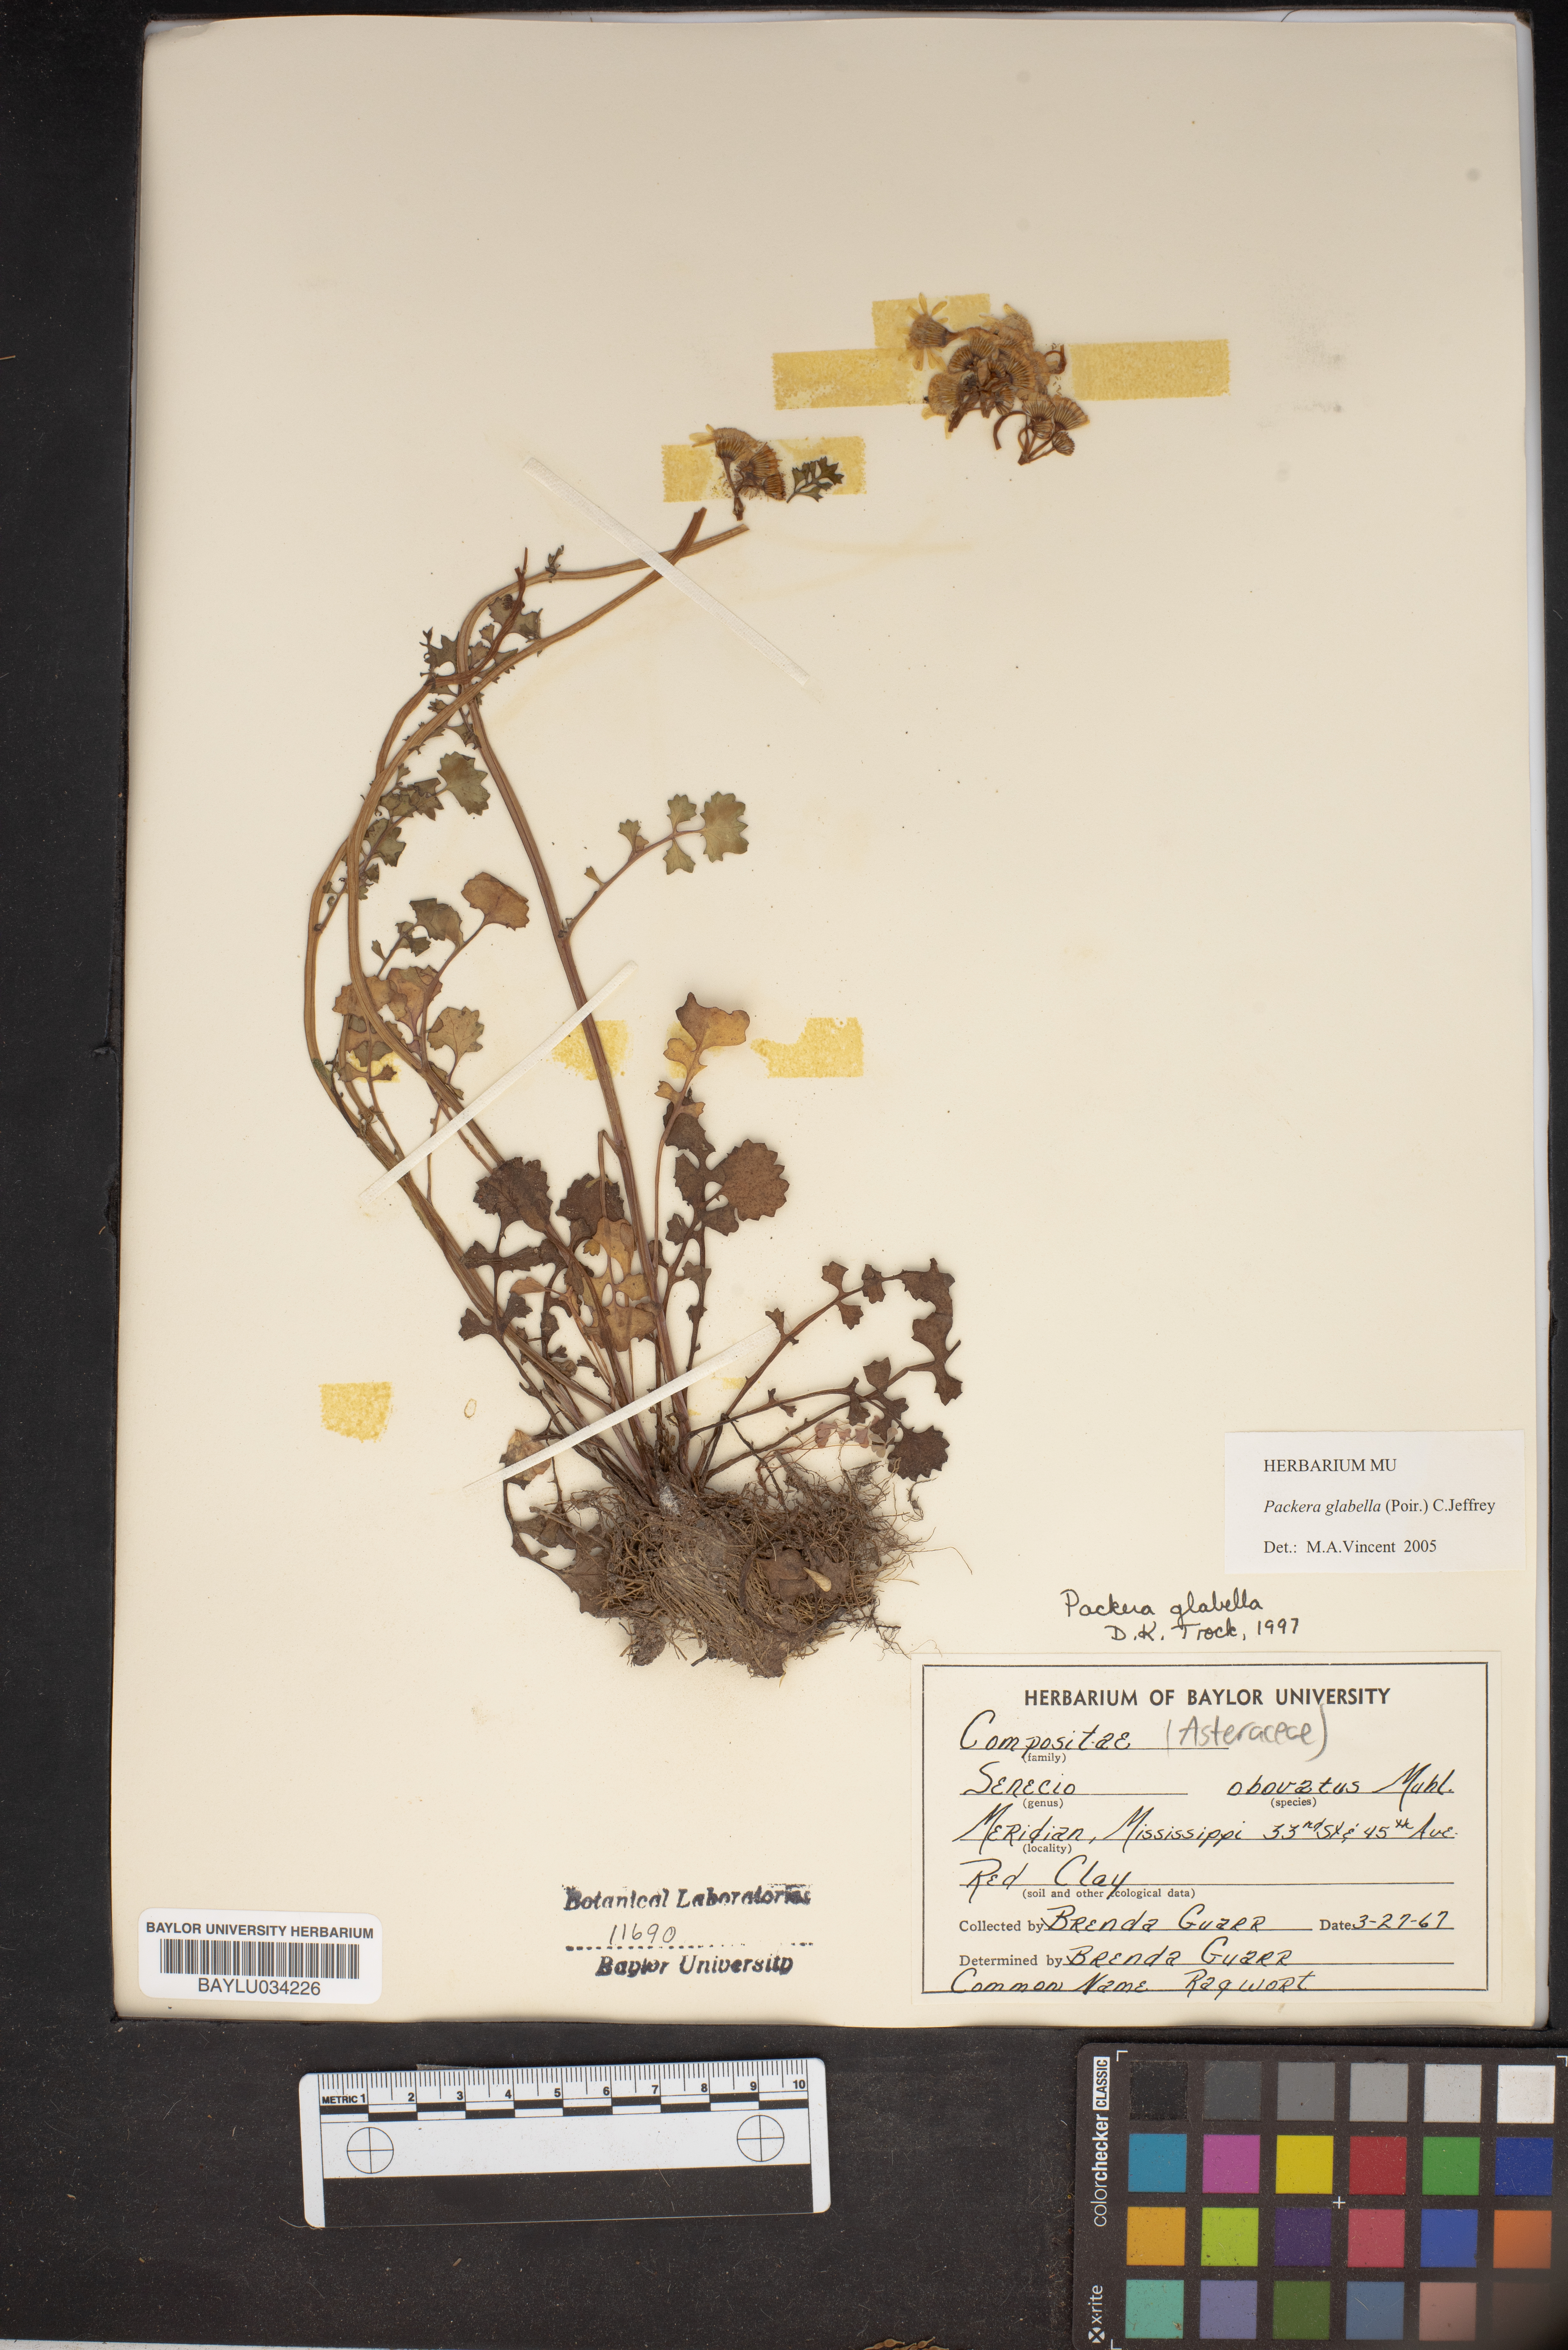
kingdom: Plantae
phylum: Tracheophyta
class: Magnoliopsida
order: Asterales
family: Asteraceae
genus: Packera
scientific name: Packera glabella
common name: Butterweed
